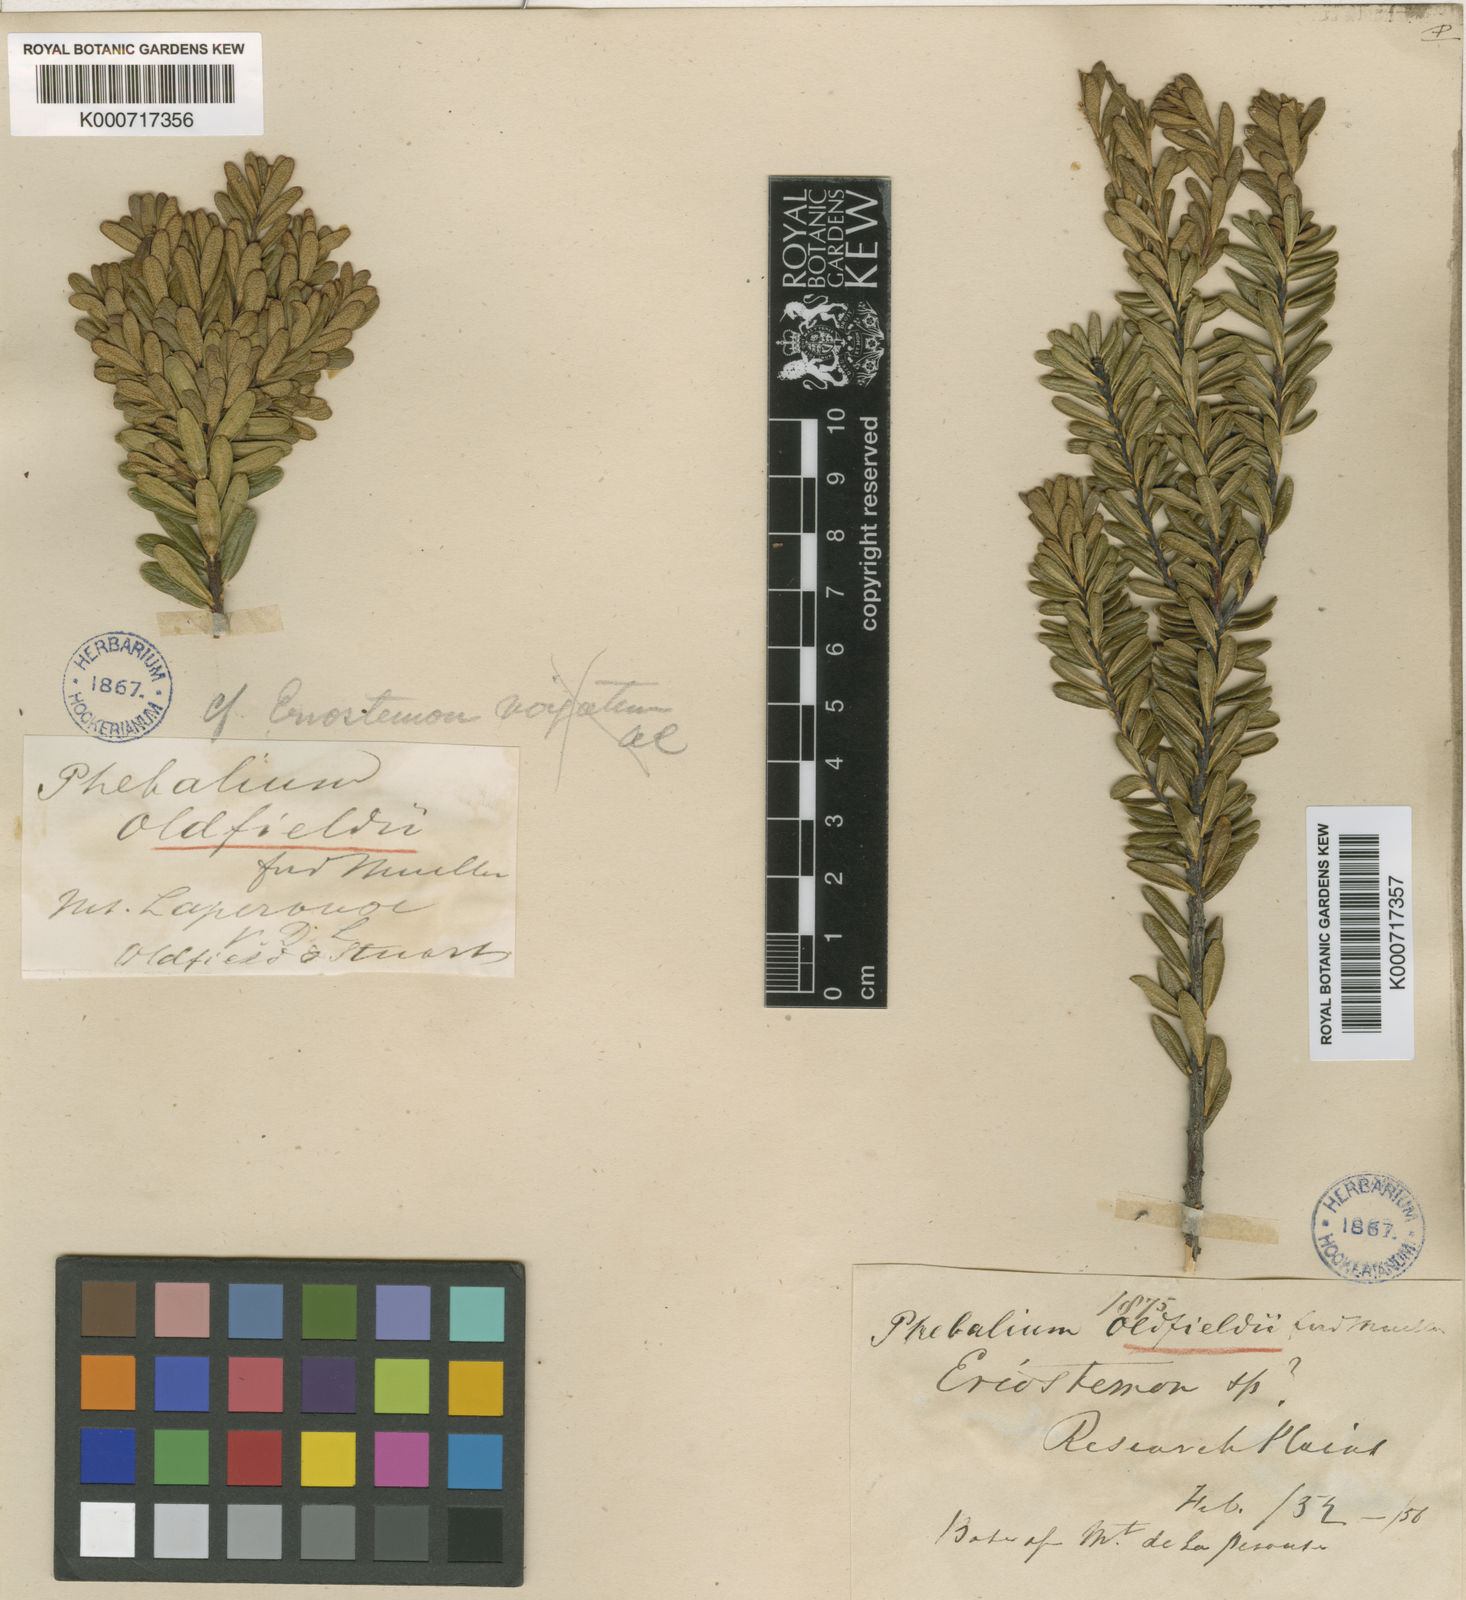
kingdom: Plantae
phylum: Tracheophyta
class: Magnoliopsida
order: Sapindales
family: Rutaceae
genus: Leionema
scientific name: Leionema oldfieldii
